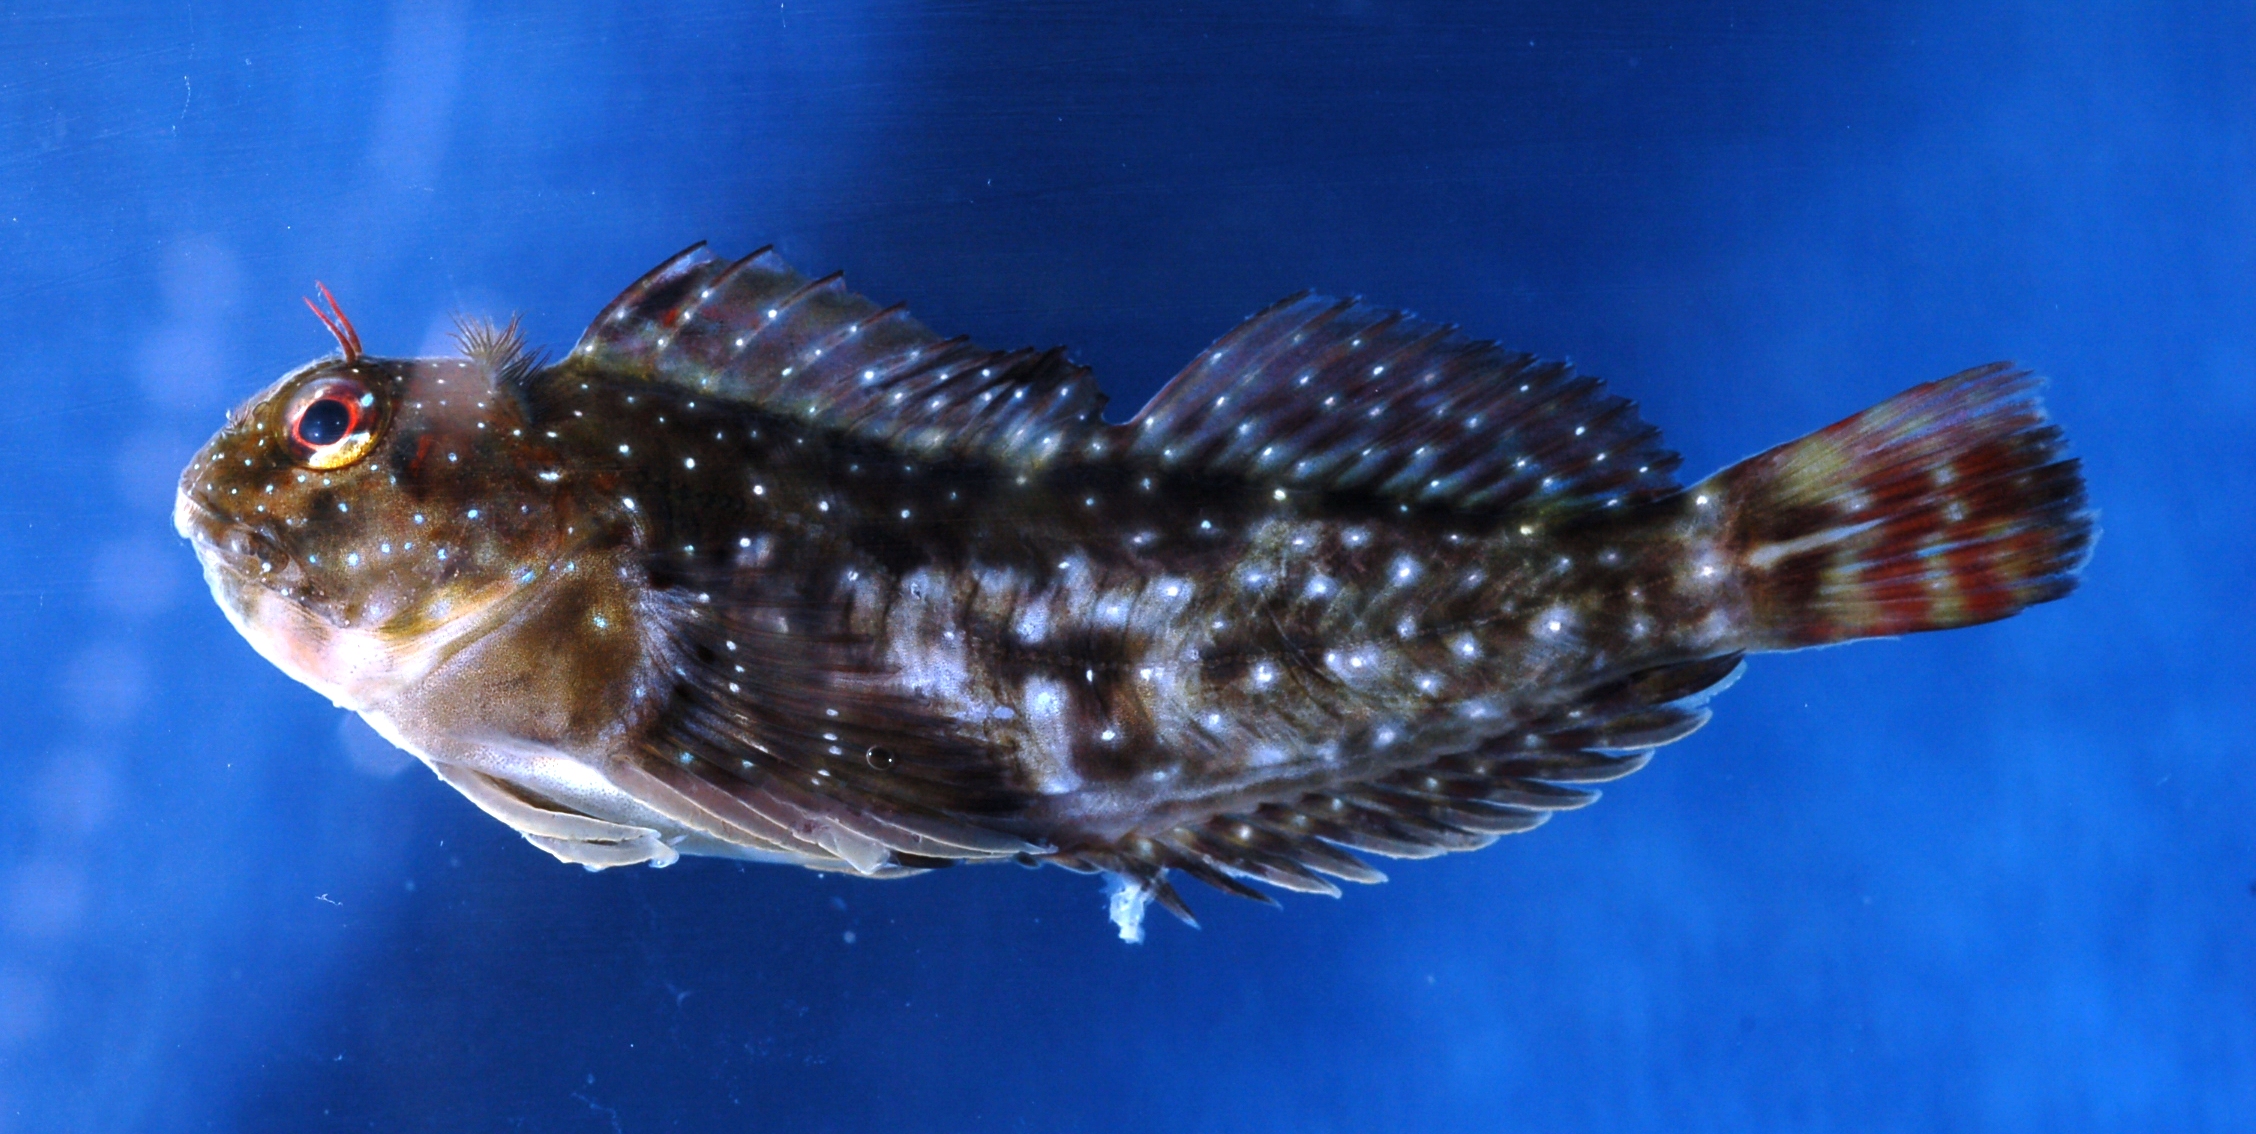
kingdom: Animalia
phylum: Chordata
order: Perciformes
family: Blenniidae
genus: Pereulixia
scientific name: Pereulixia kosiensis
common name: Kosi rockskipper
